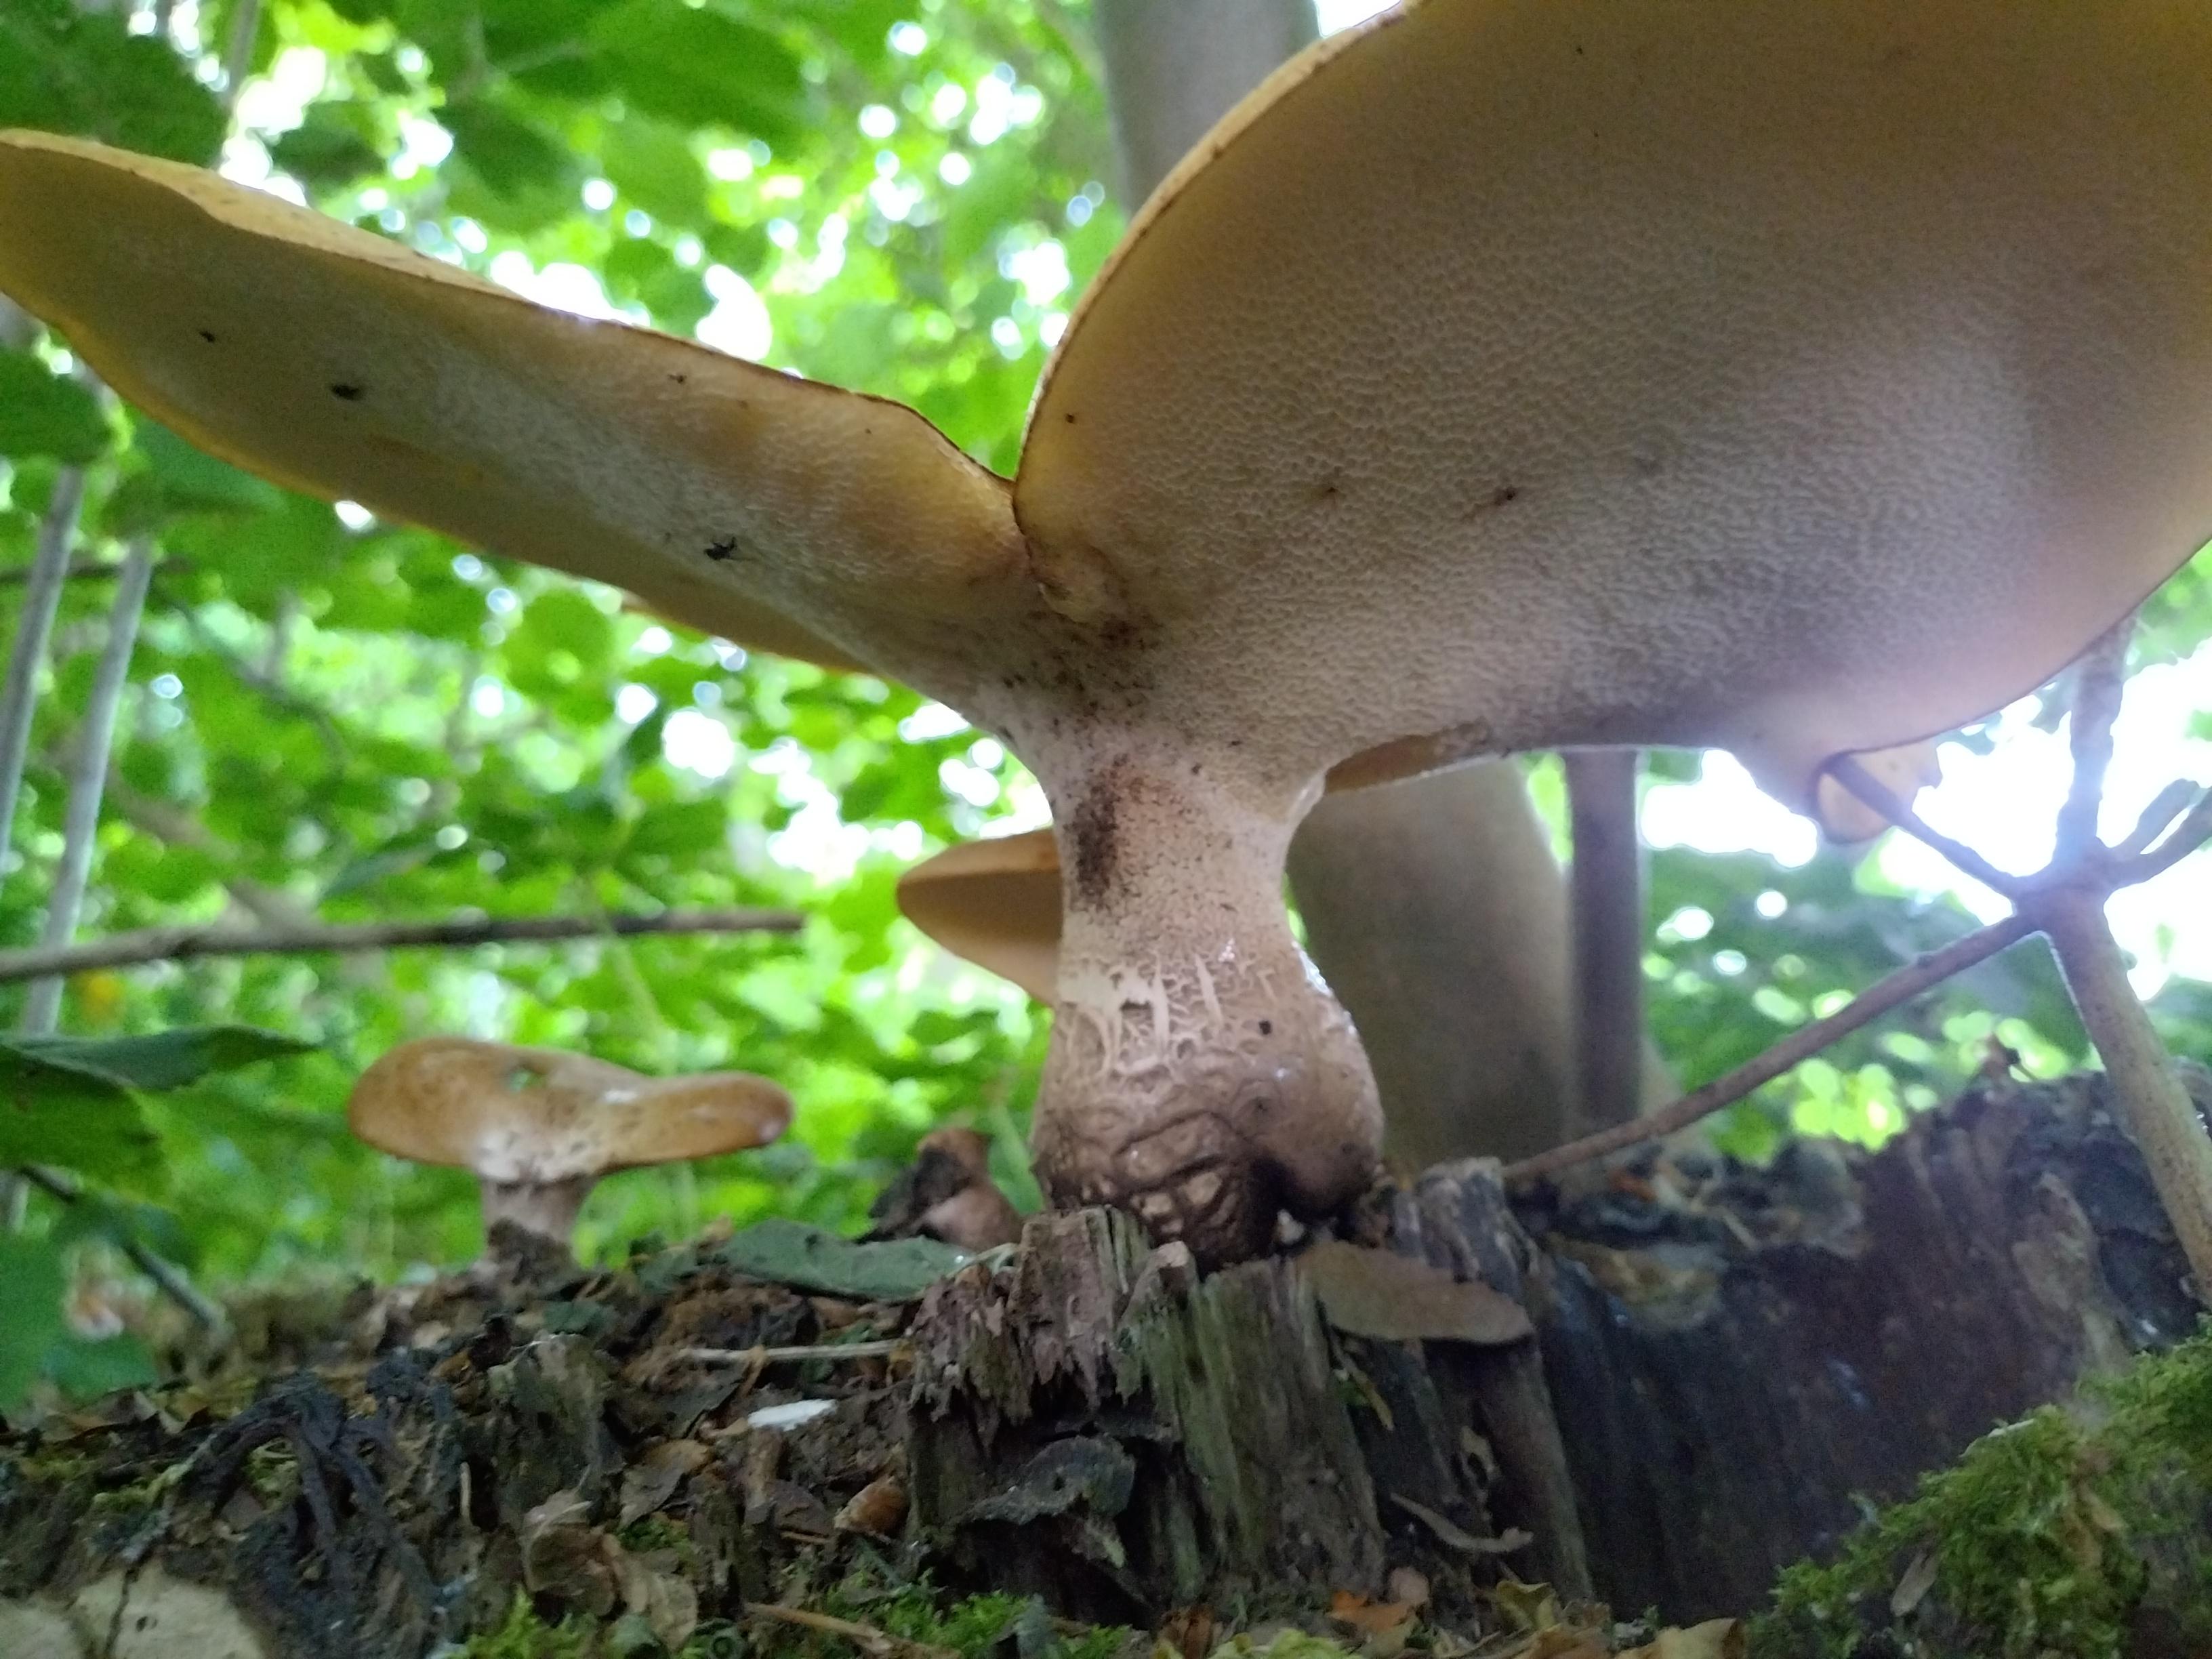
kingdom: Fungi
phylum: Basidiomycota
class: Agaricomycetes
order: Polyporales
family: Polyporaceae
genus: Cerioporus
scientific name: Cerioporus squamosus
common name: skællet stilkporesvamp
